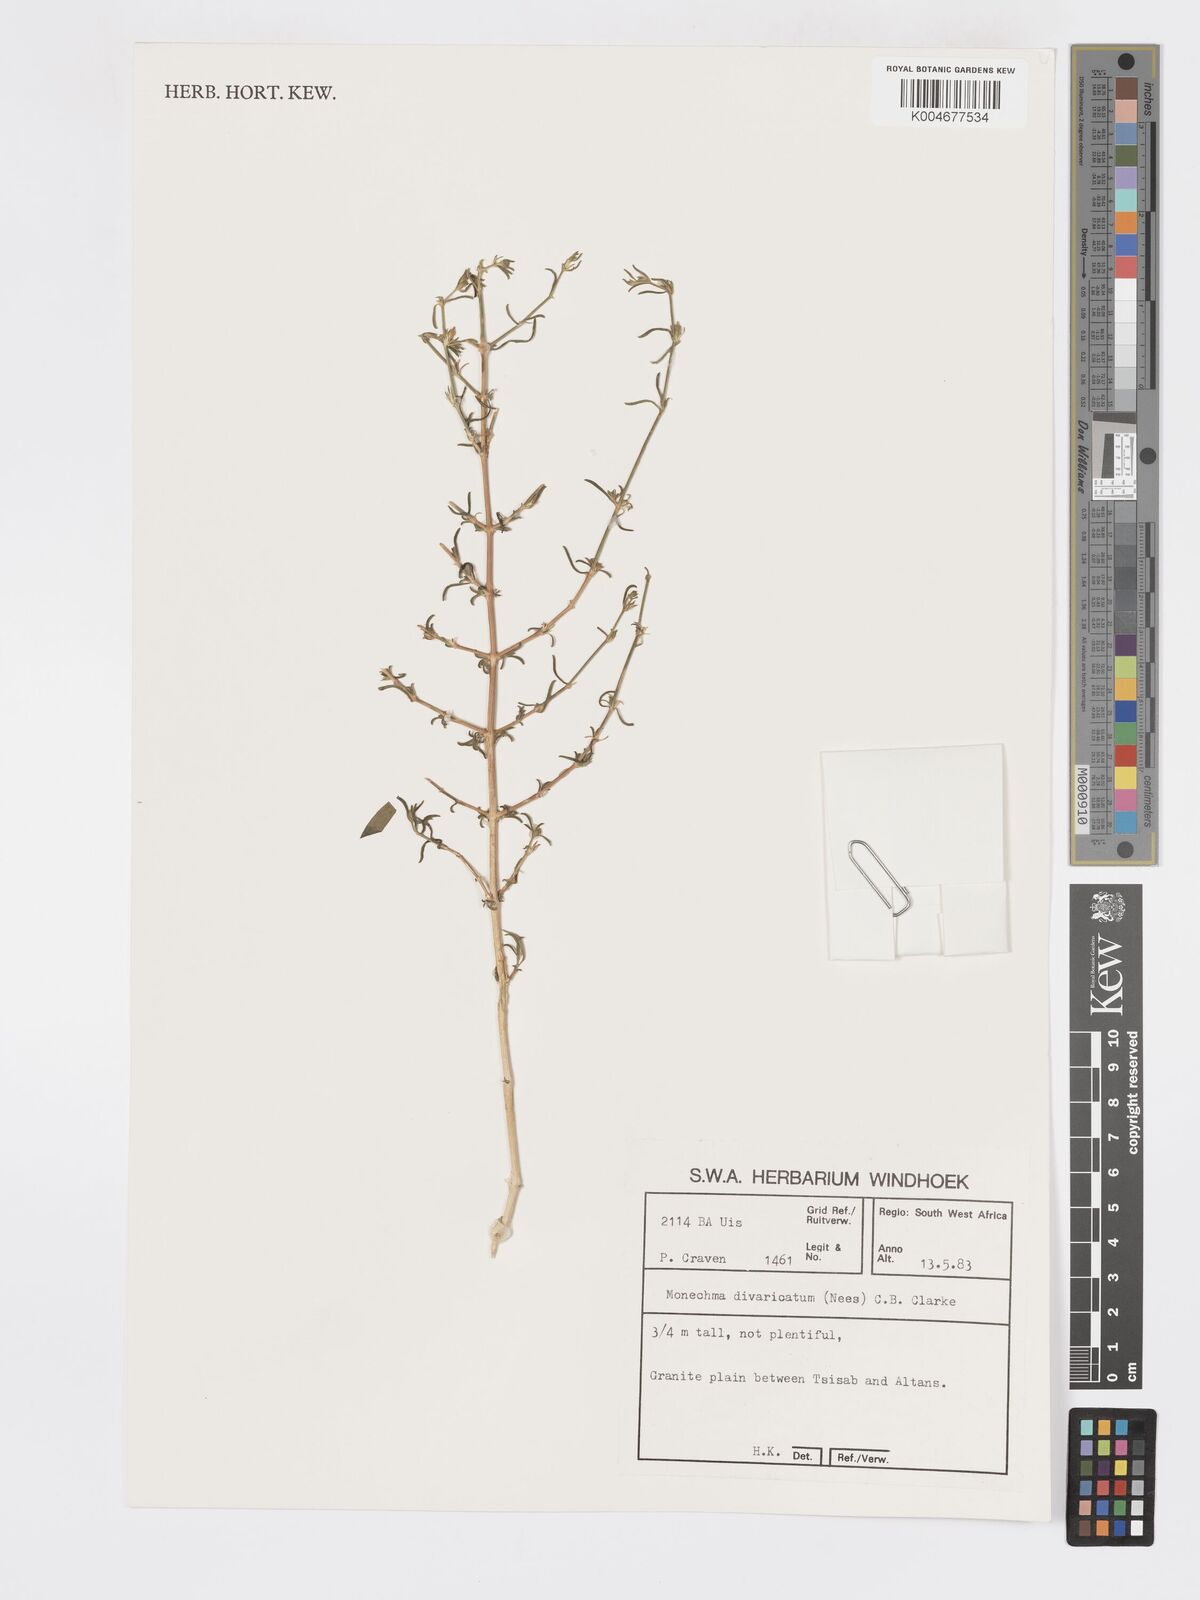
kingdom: Plantae
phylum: Tracheophyta
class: Magnoliopsida
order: Lamiales
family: Acanthaceae
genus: Pogonospermum
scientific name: Pogonospermum
